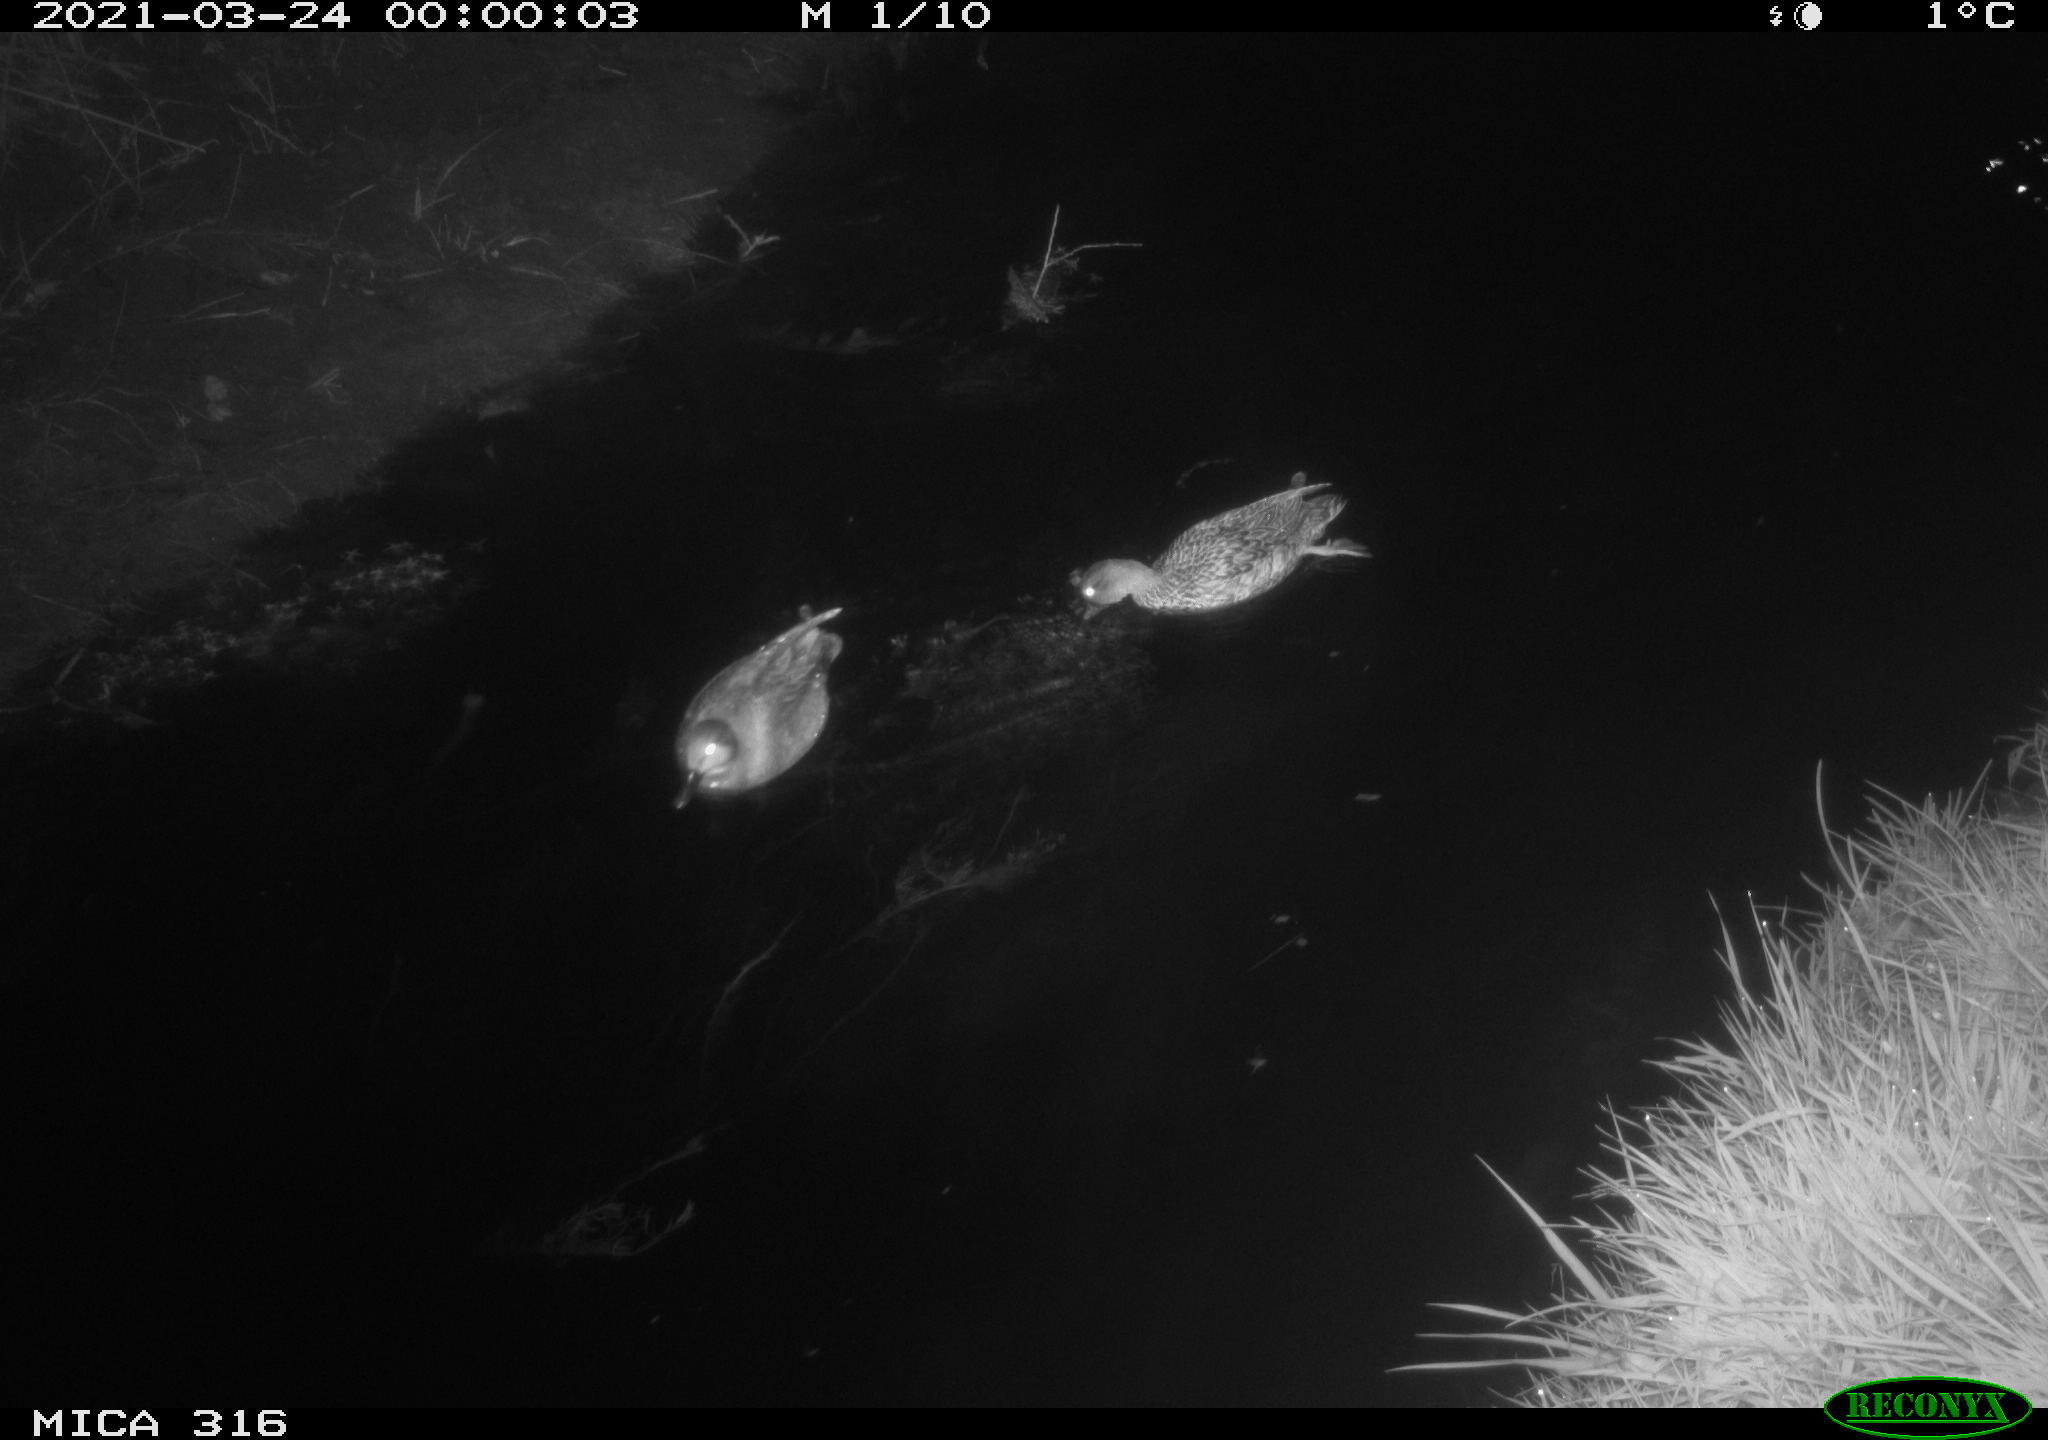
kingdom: Animalia
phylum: Chordata
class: Aves
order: Gruiformes
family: Rallidae
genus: Fulica
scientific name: Fulica atra
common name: Eurasian coot
